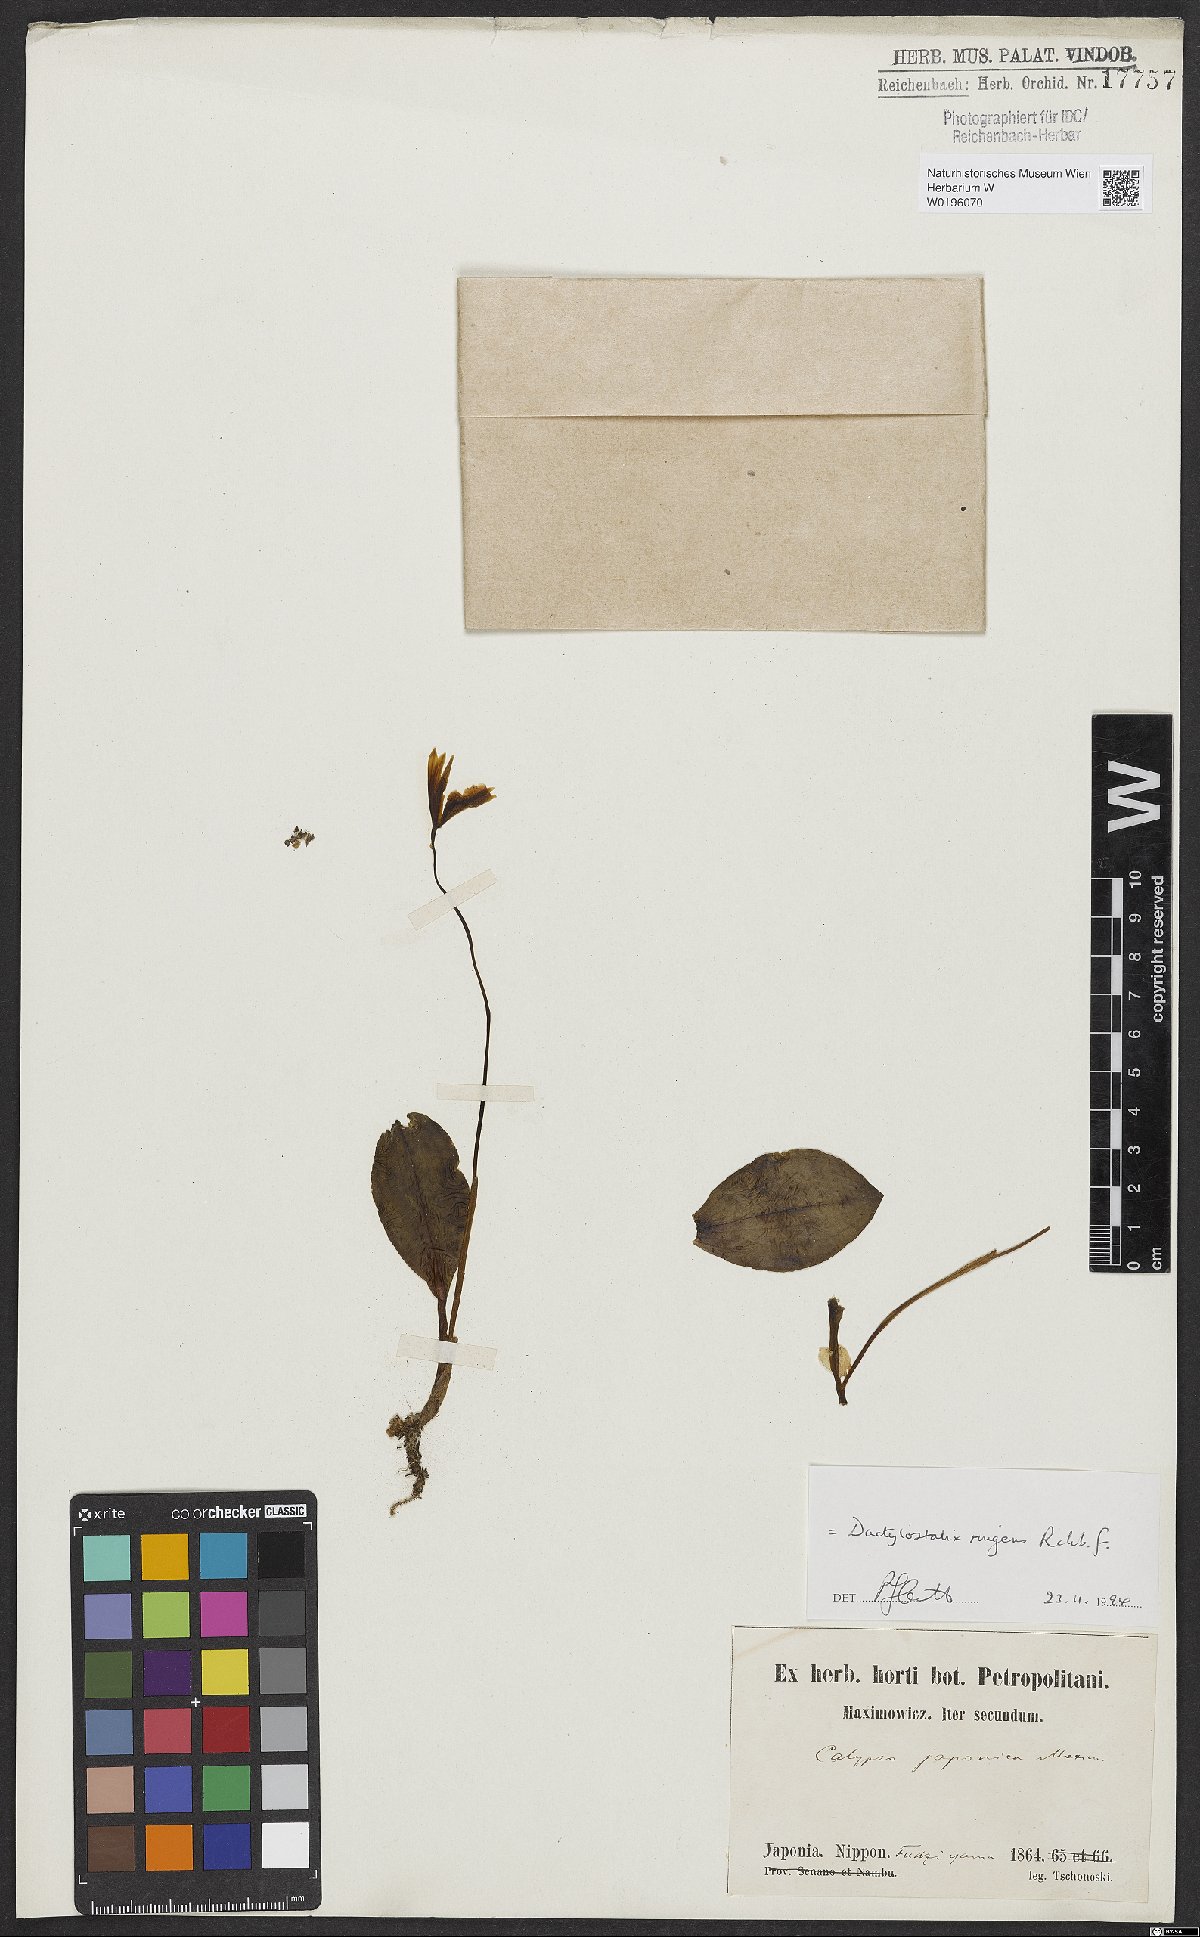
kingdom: Plantae
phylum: Tracheophyta
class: Liliopsida
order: Asparagales
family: Orchidaceae
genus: Dactylostalix
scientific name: Dactylostalix ringens
